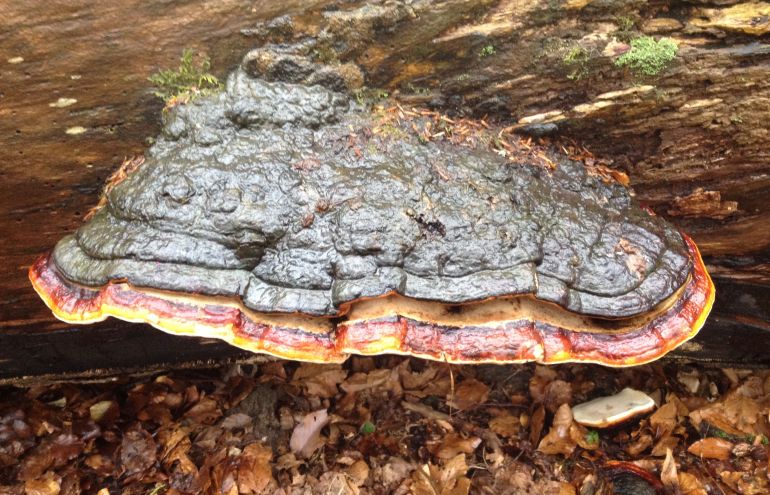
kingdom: Fungi
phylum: Basidiomycota
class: Agaricomycetes
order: Polyporales
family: Fomitopsidaceae
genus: Fomitopsis
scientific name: Fomitopsis pinicola
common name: randbæltet hovporesvamp
